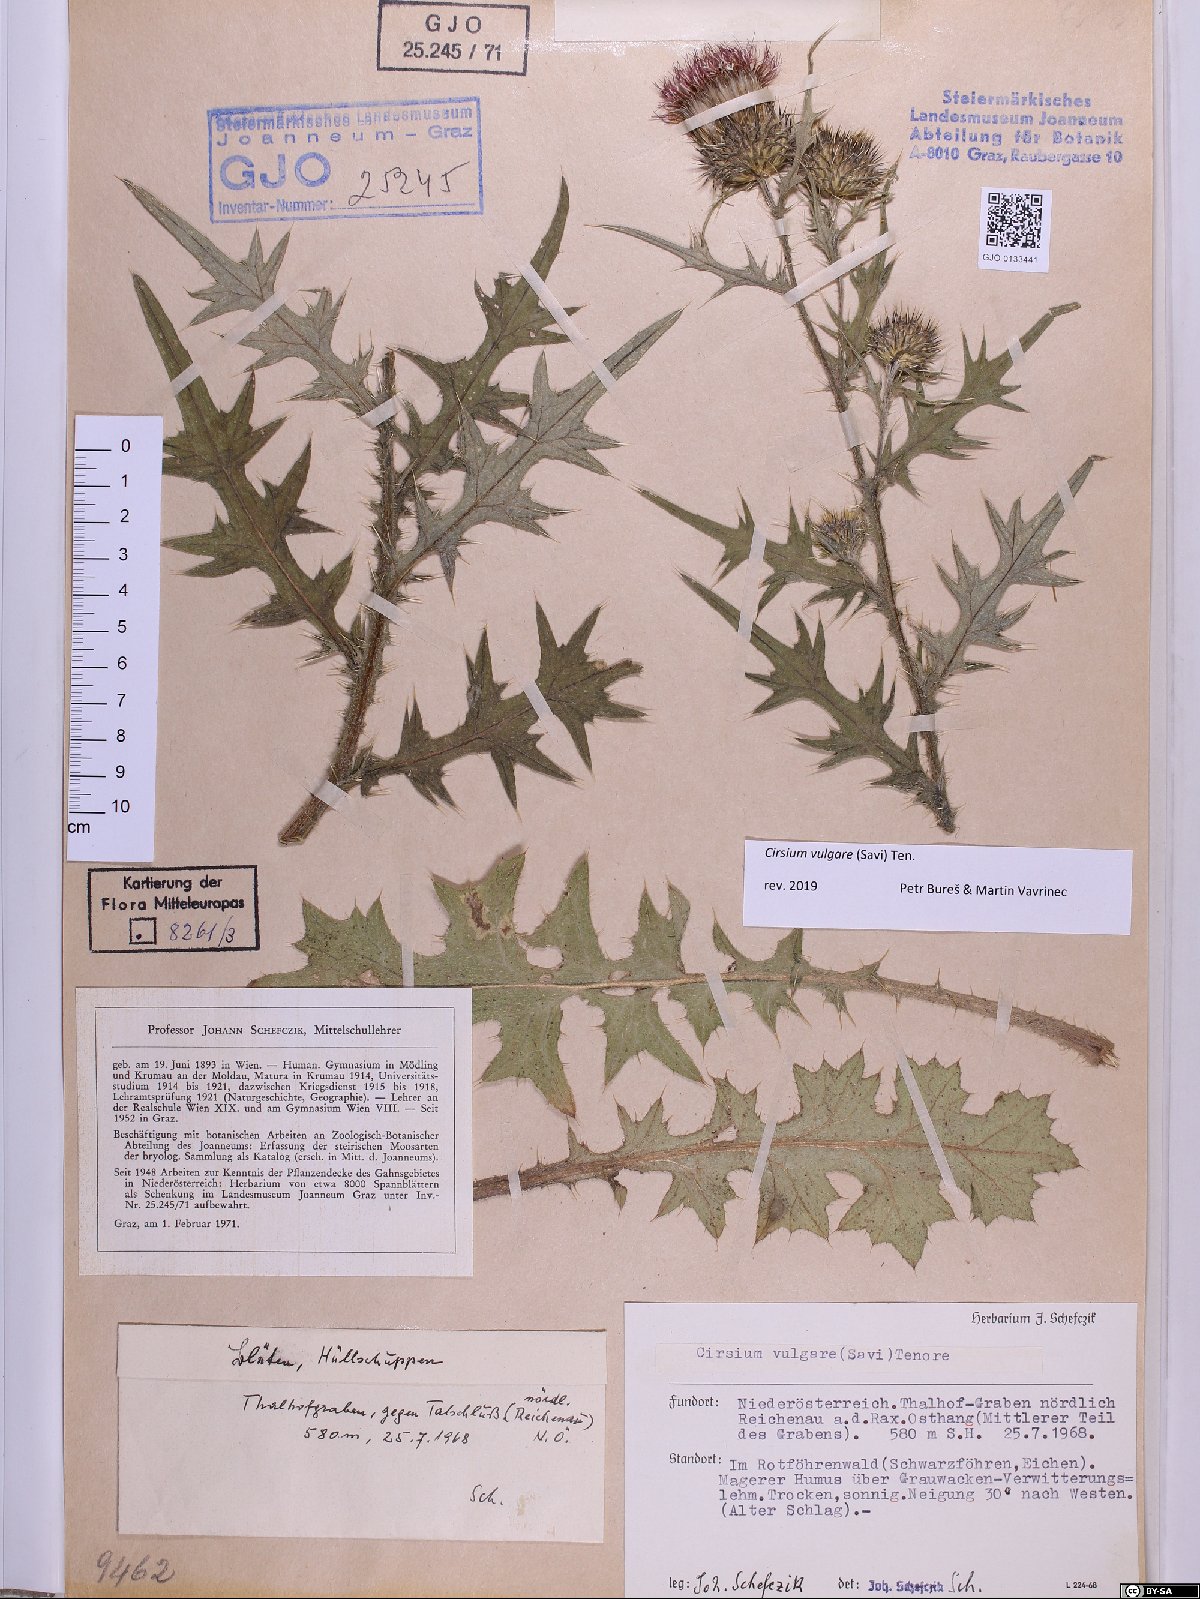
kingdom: Plantae
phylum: Tracheophyta
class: Magnoliopsida
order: Asterales
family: Asteraceae
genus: Cirsium
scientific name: Cirsium vulgare
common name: Bull thistle
